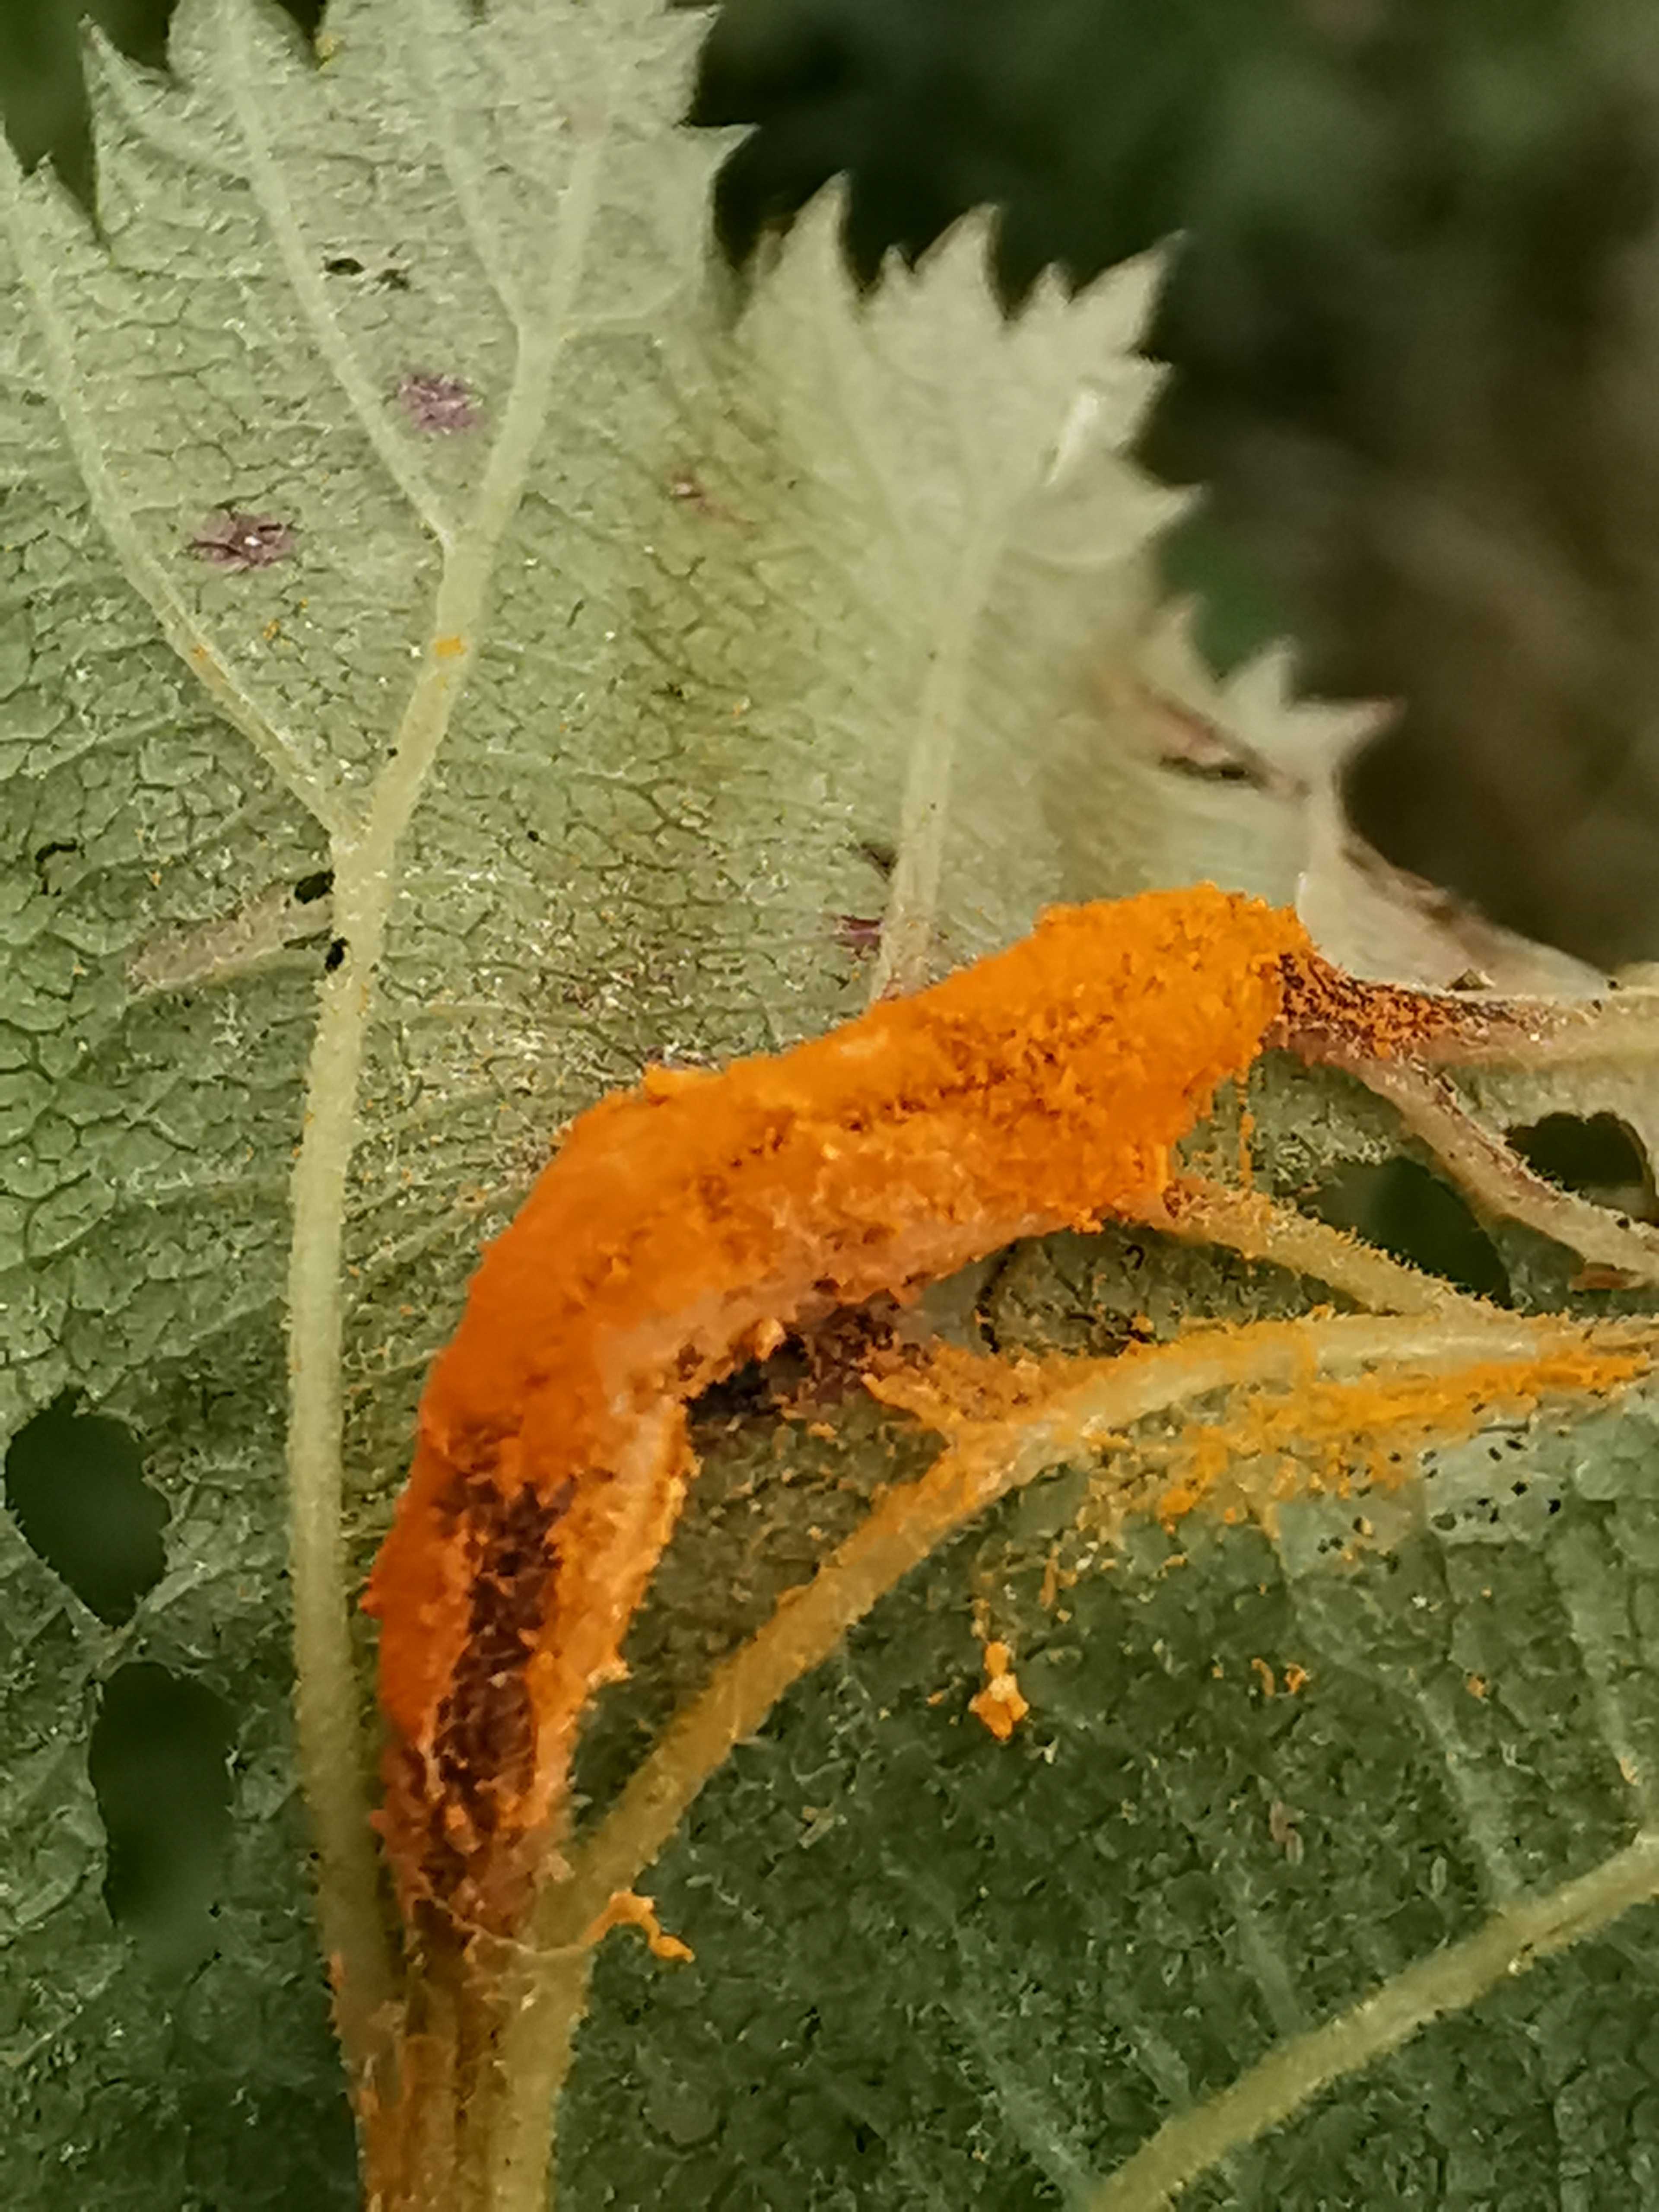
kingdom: Fungi
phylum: Basidiomycota
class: Pucciniomycetes
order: Pucciniales
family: Raveneliaceae
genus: Triphragmium
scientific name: Triphragmium ulmariae
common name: almindelig mjødurtrust
